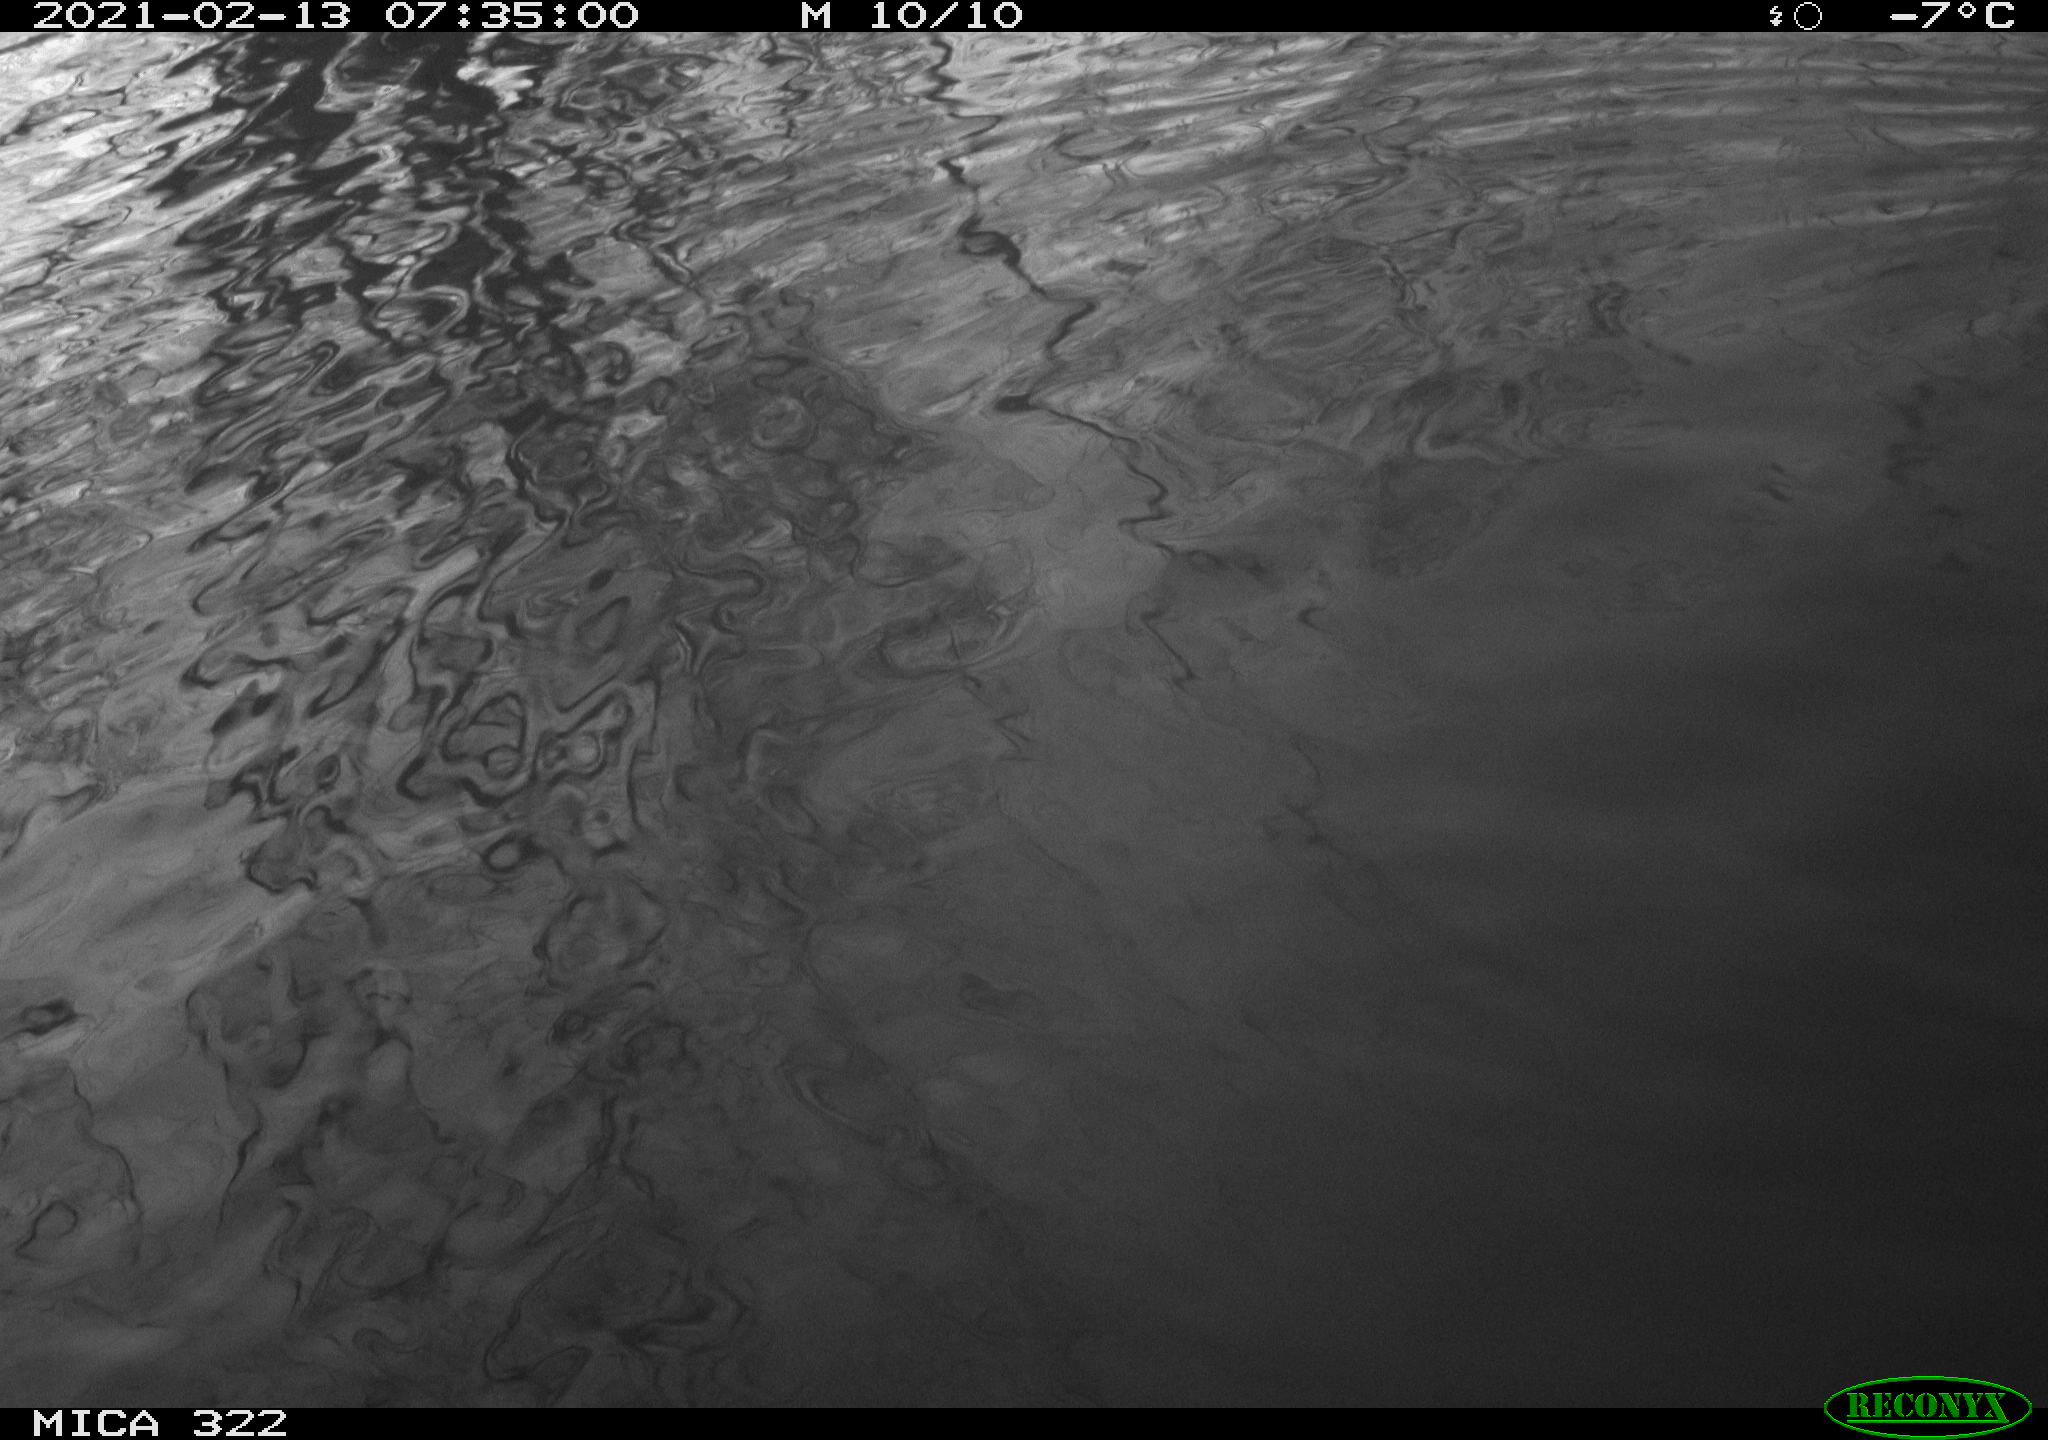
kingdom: Animalia
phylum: Chordata
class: Aves
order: Gruiformes
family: Rallidae
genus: Fulica
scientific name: Fulica atra
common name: Eurasian coot
